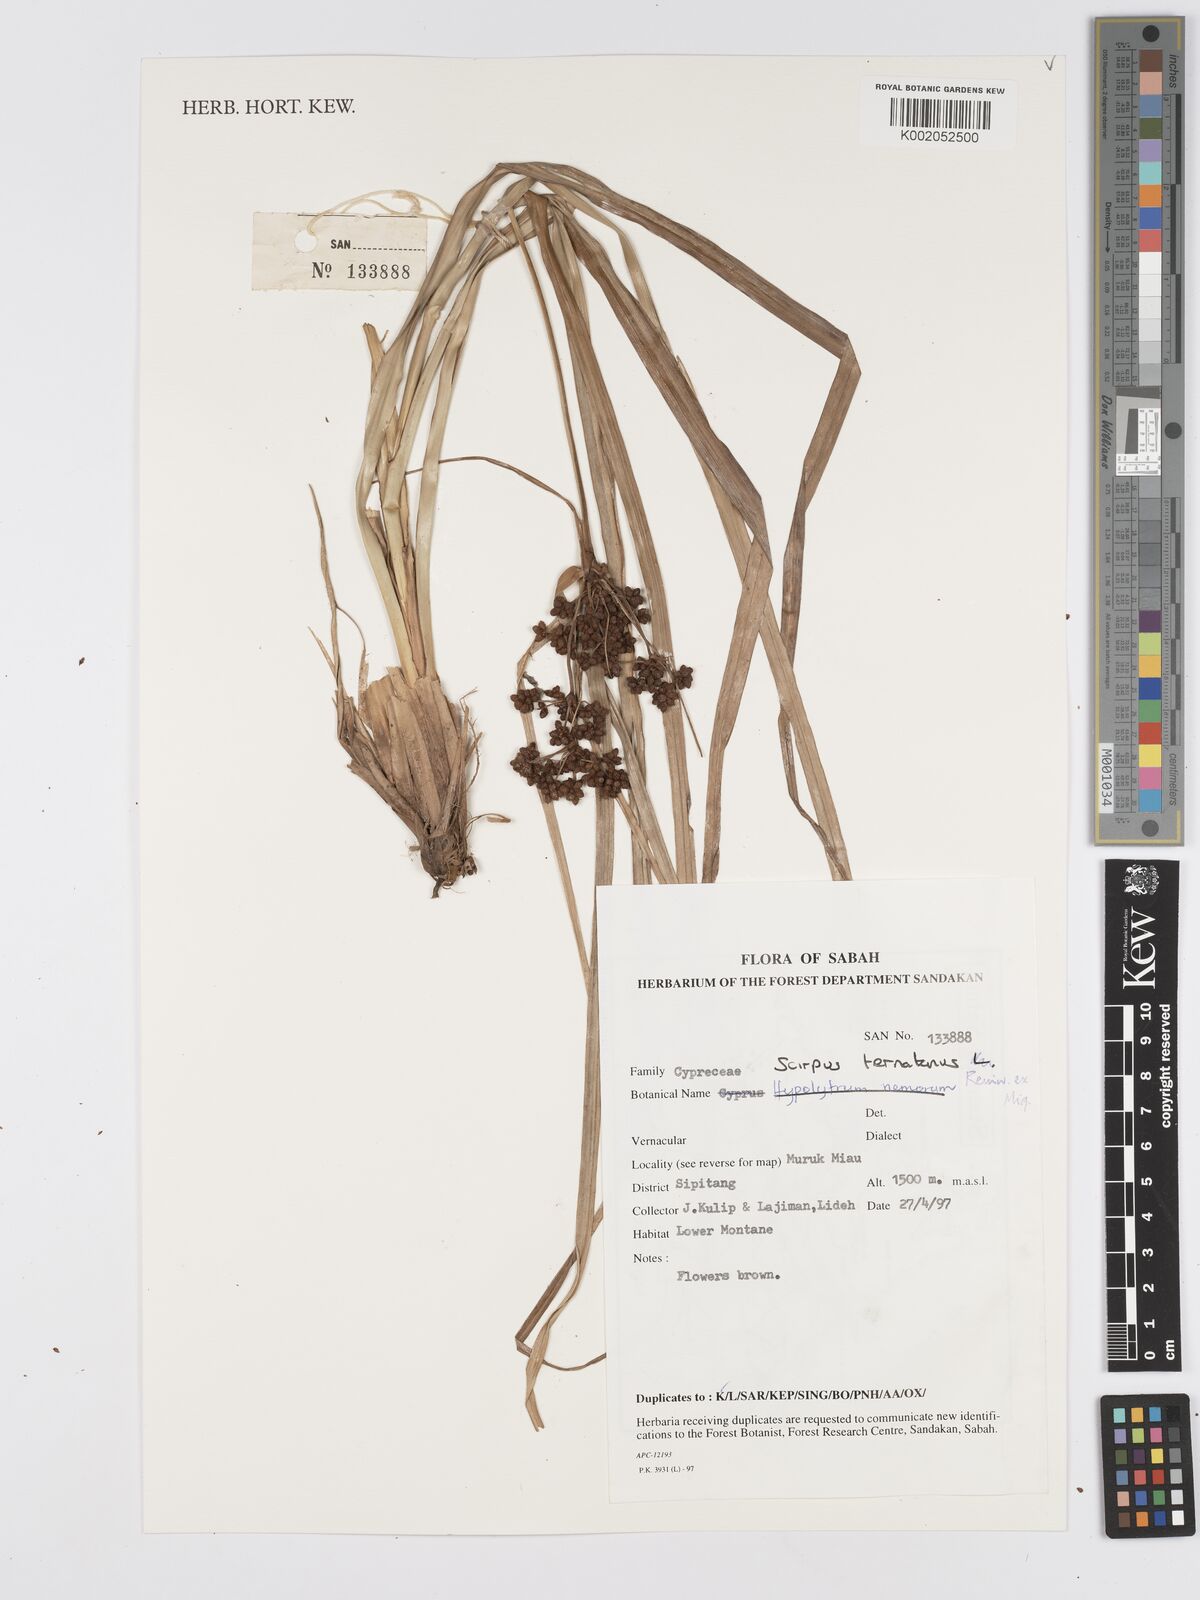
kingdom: Plantae
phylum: Tracheophyta
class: Liliopsida
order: Poales
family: Cyperaceae
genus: Scirpus
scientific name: Scirpus ternatanus
